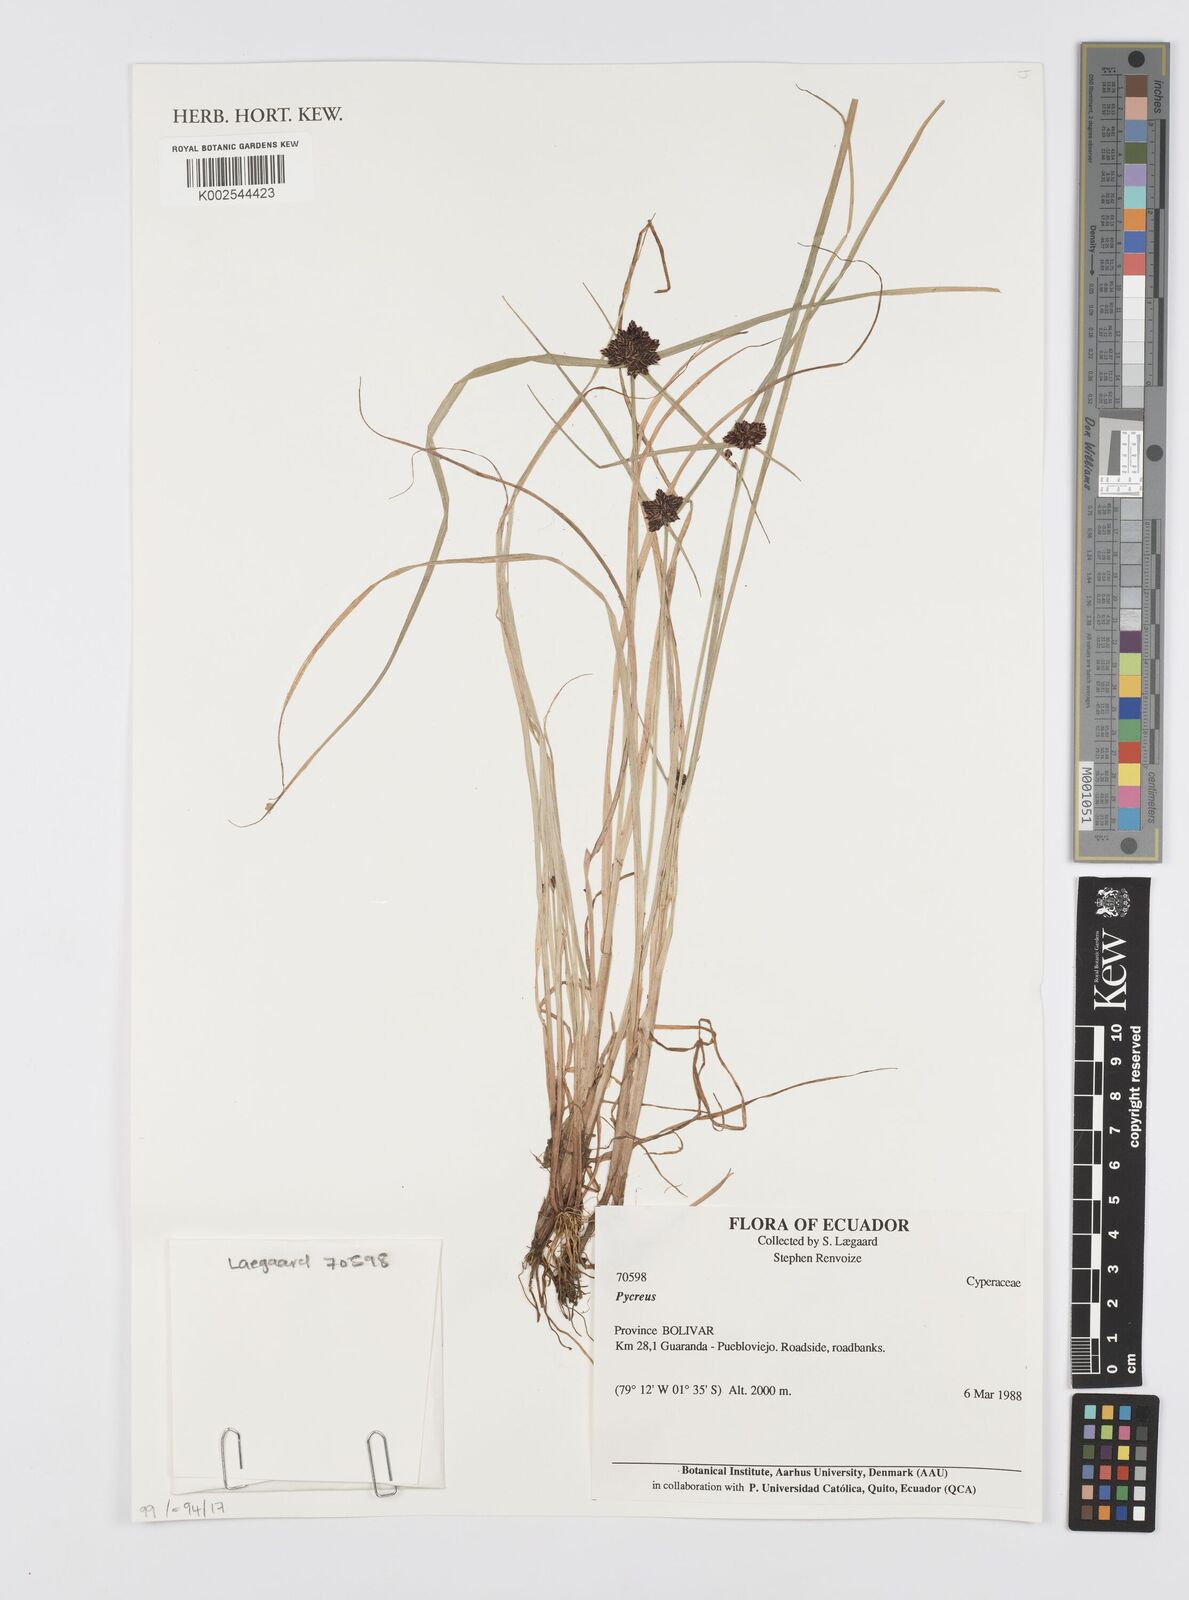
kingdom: Plantae
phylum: Tracheophyta
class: Liliopsida
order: Poales
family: Cyperaceae
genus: Cyperus
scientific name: Cyperus
